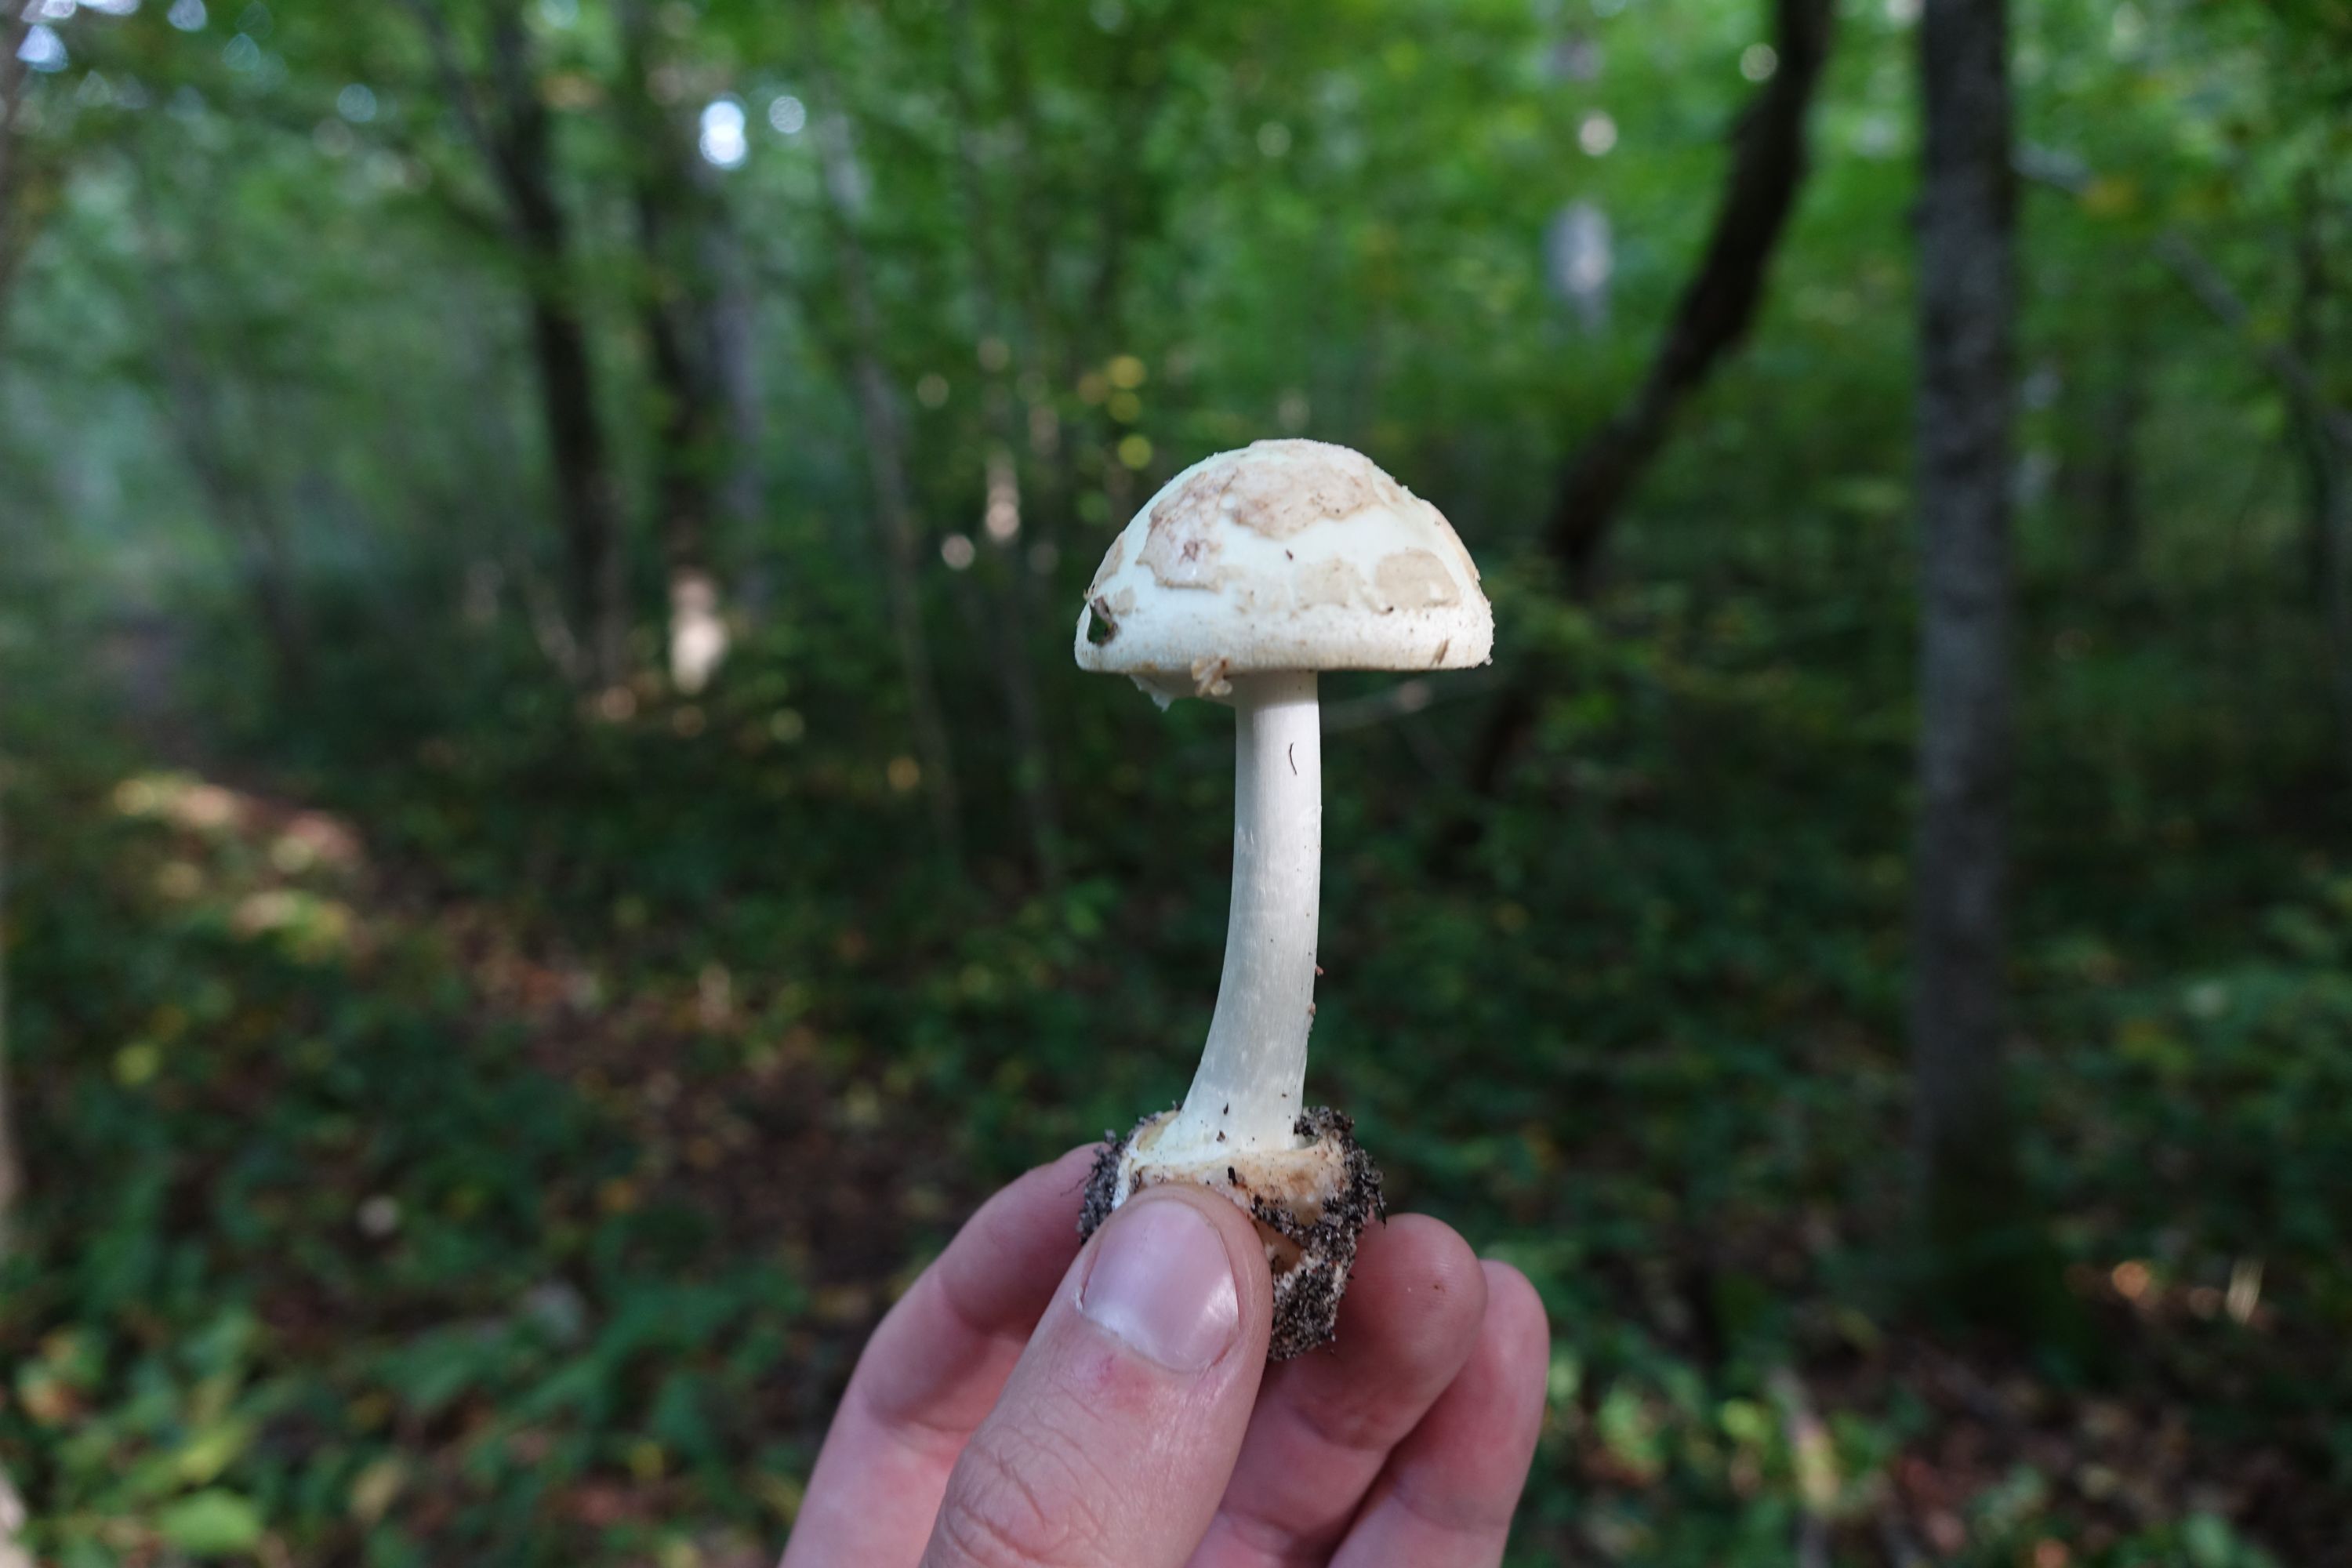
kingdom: Fungi
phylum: Basidiomycota
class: Agaricomycetes
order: Agaricales
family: Amanitaceae
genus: Amanita
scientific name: Amanita citrina
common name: False death-cap
